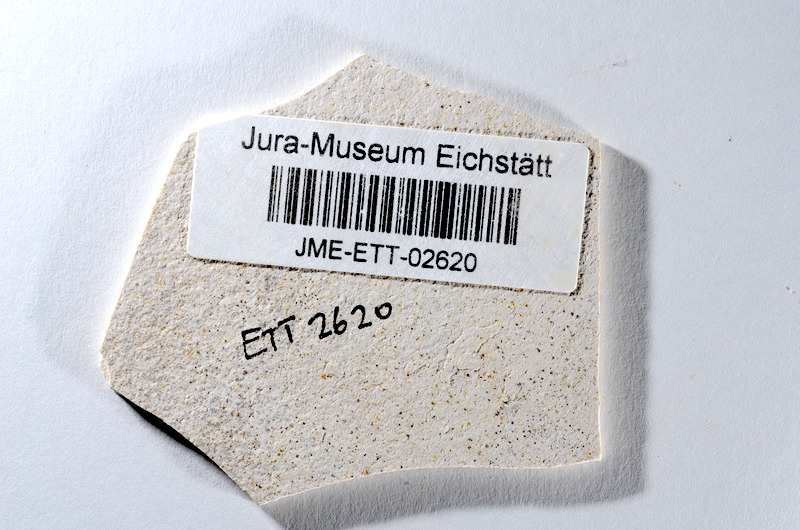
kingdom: Animalia
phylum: Chordata
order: Salmoniformes
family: Orthogonikleithridae
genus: Orthogonikleithrus
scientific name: Orthogonikleithrus hoelli
